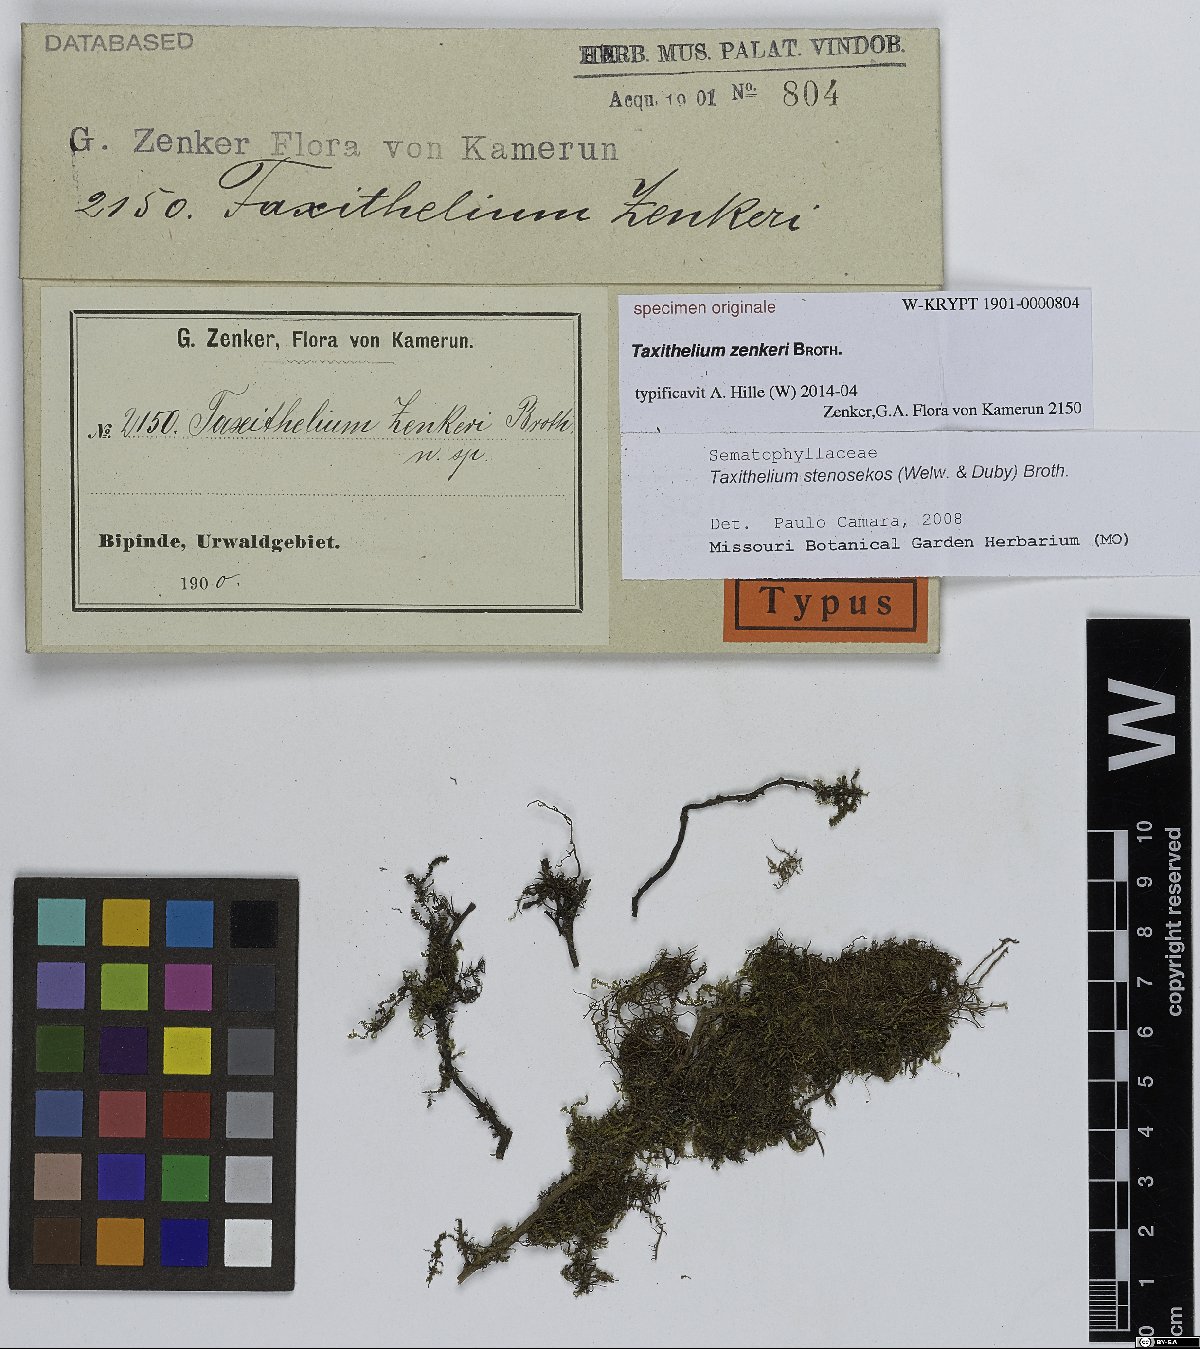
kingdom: Plantae
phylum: Bryophyta
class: Bryopsida
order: Hypnales
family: Sematophyllaceae
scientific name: Sematophyllaceae
